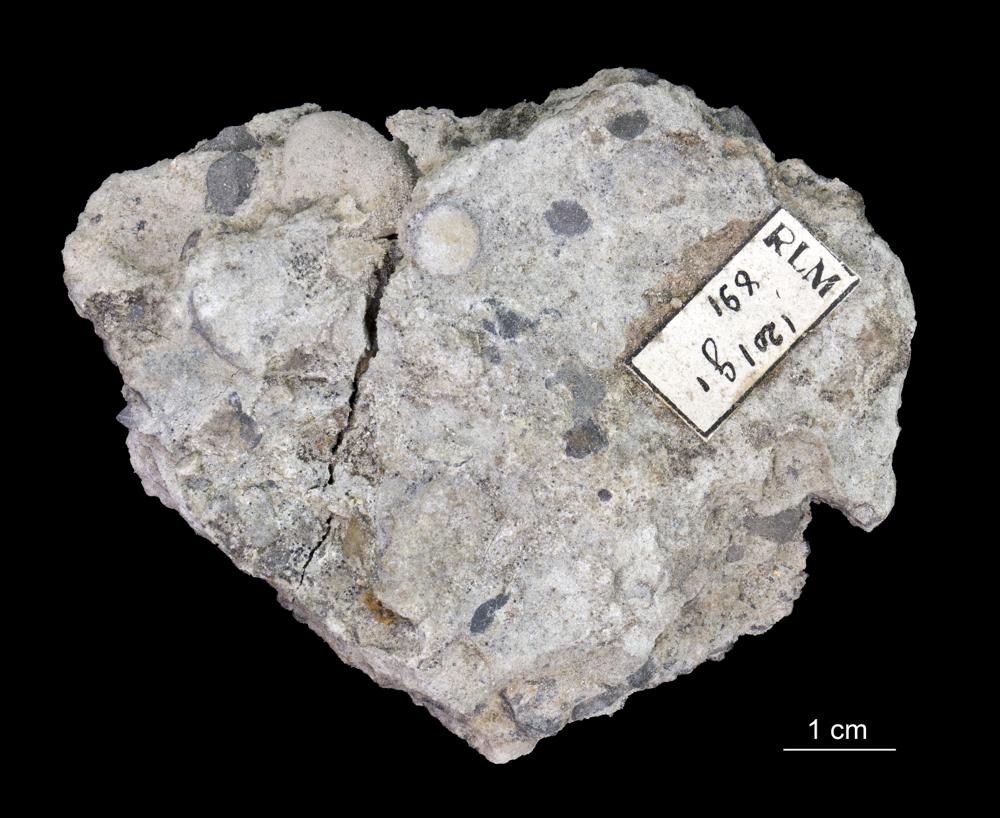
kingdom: Animalia
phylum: Brachiopoda
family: Paterinidae
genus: Mickwitzia
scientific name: Mickwitzia
